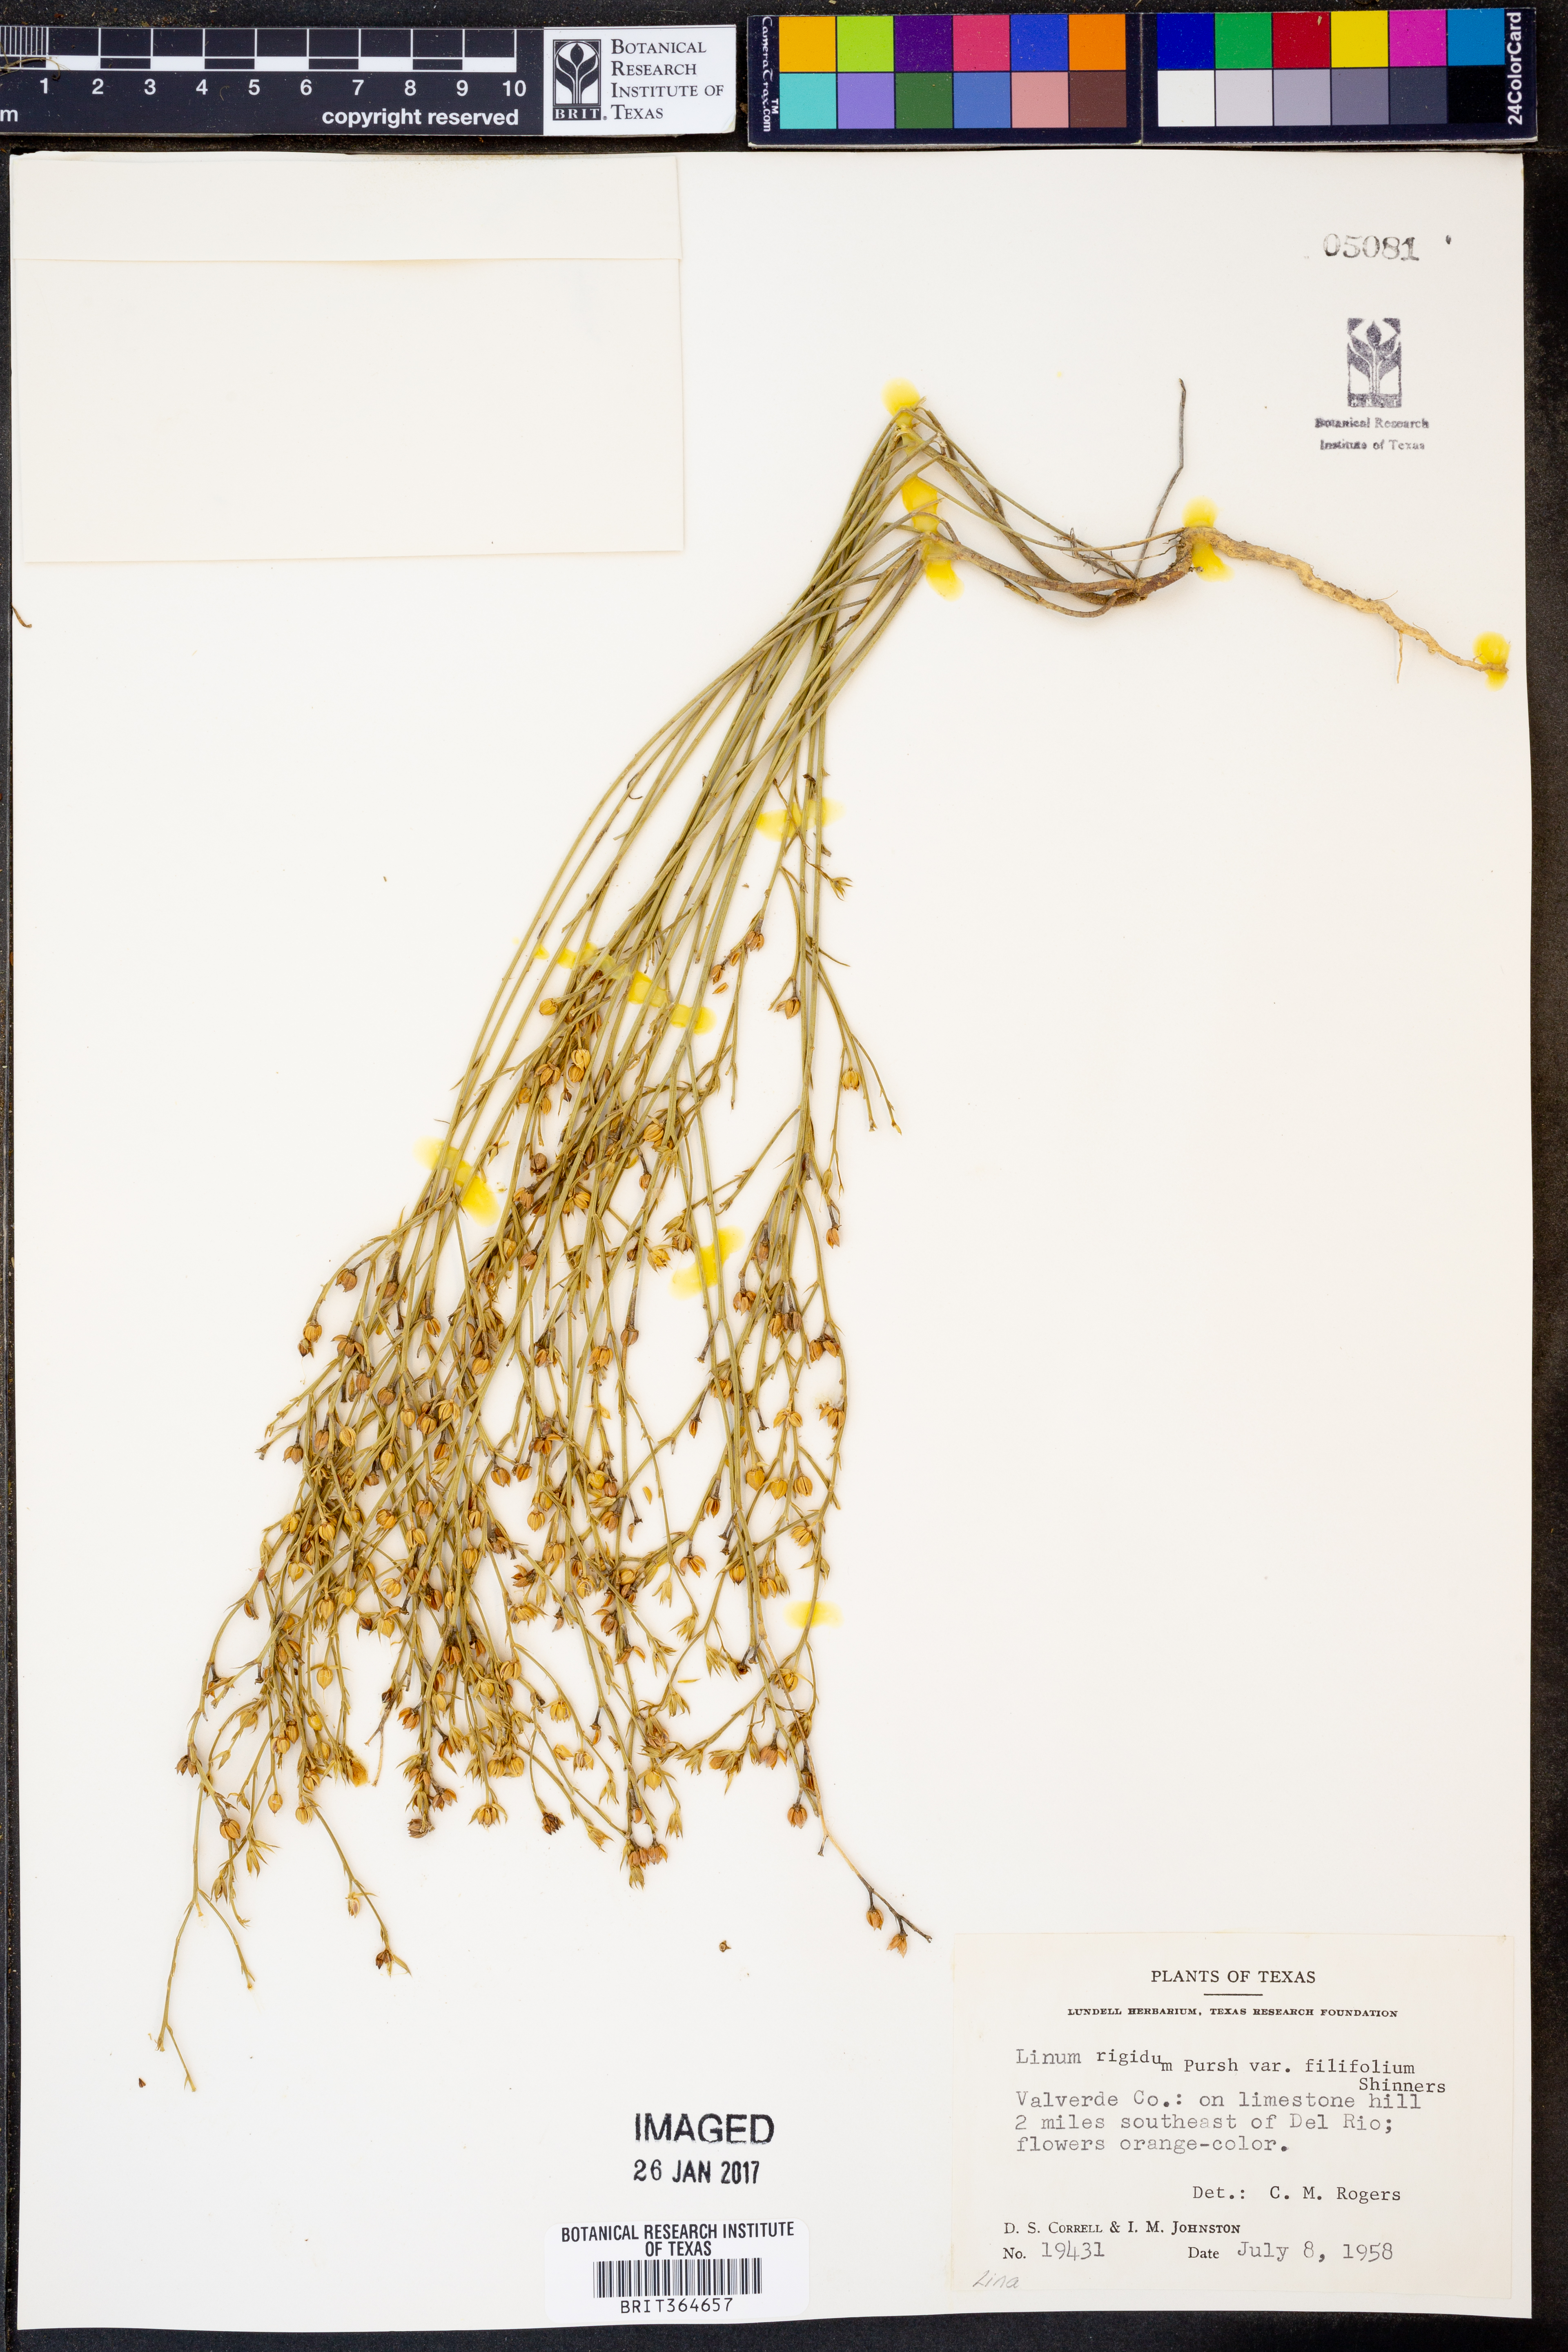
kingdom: Plantae
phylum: Tracheophyta
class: Magnoliopsida
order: Malpighiales
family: Linaceae
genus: Linum
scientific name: Linum berlandieri
